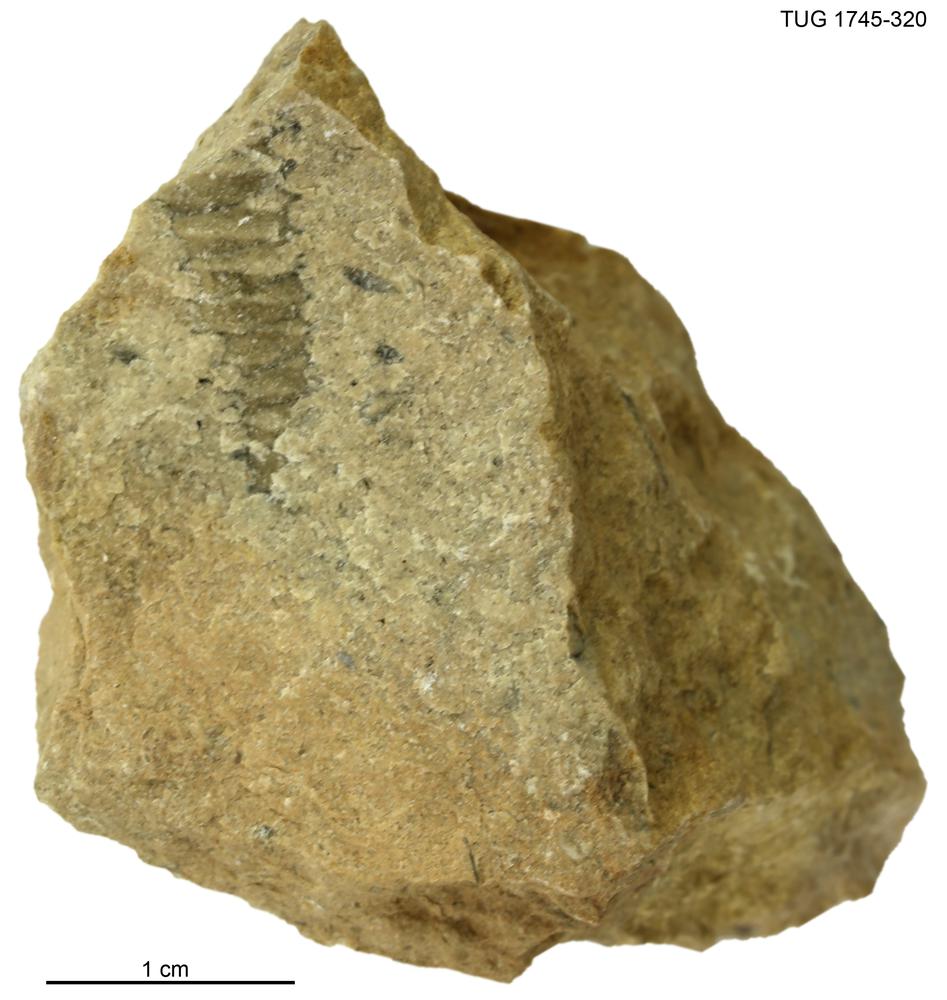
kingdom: Animalia
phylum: Mollusca
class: Cephalopoda
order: Orthocerida
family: Dawsonoceratidae
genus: Palaeodawsonocerina
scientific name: Palaeodawsonocerina Spyroceras senckenbergi
